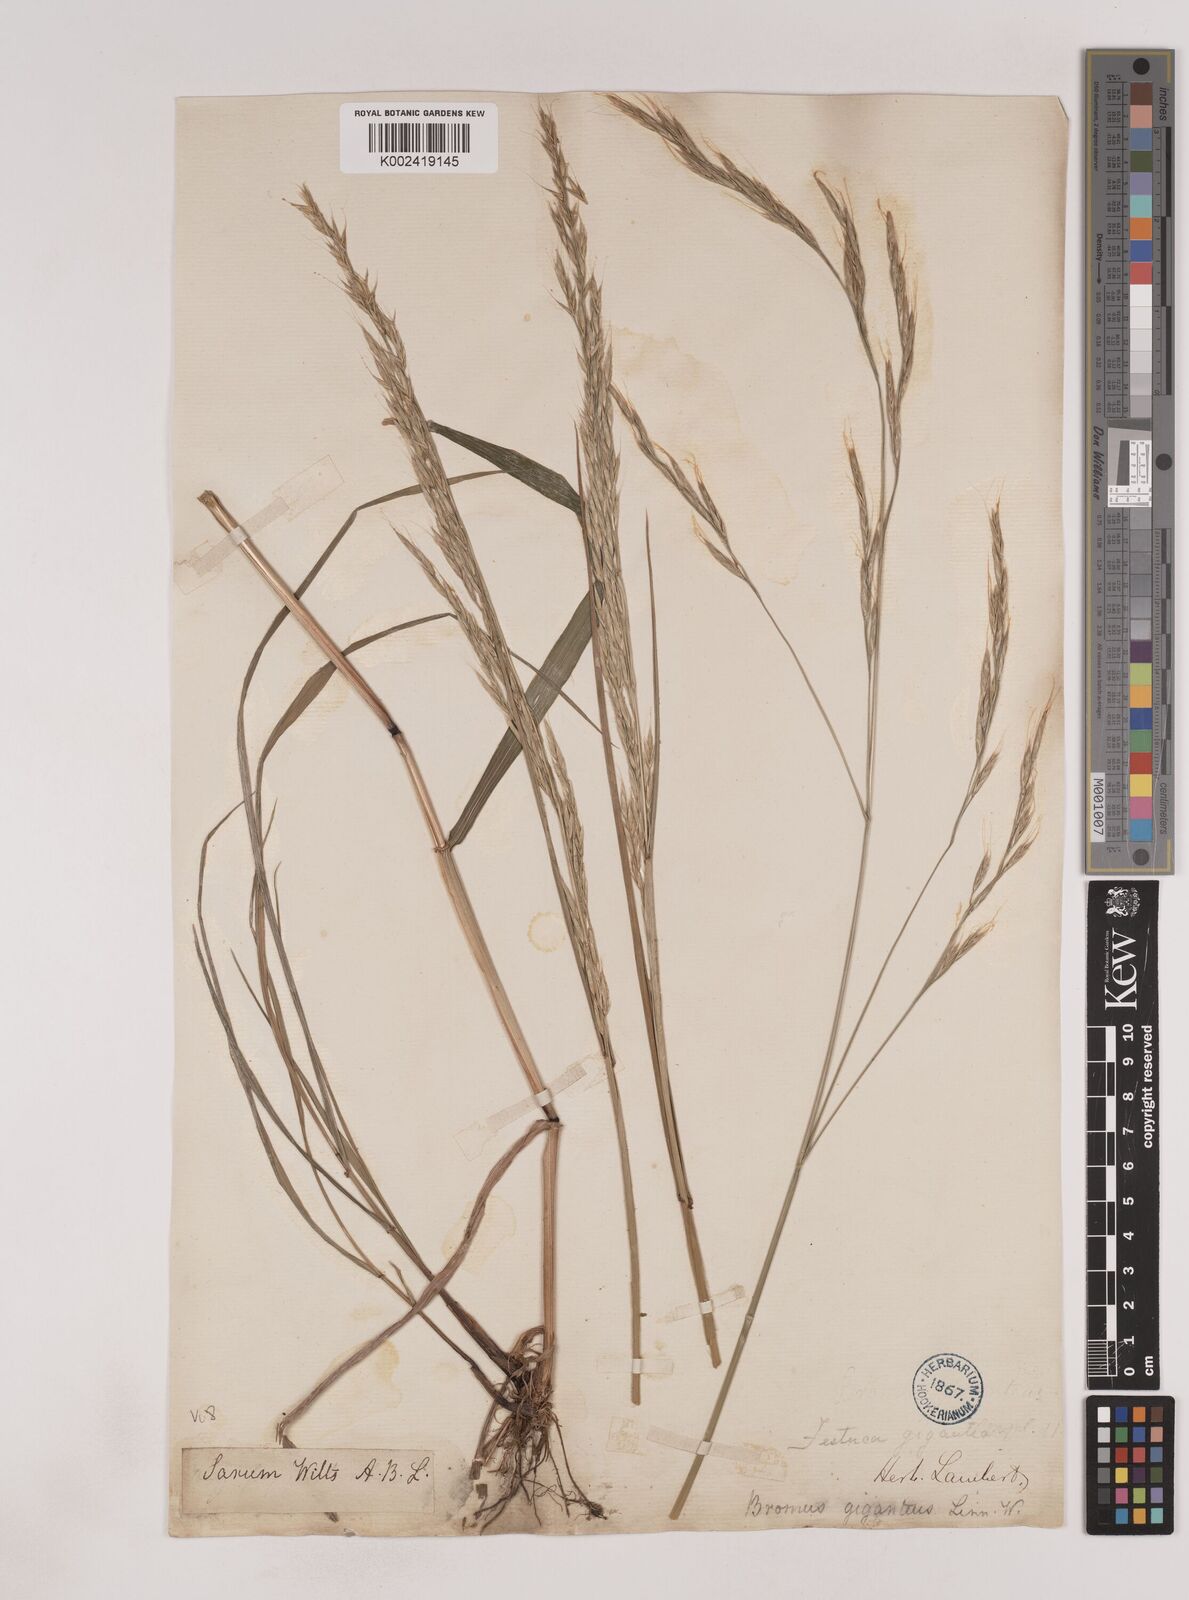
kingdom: Plantae
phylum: Tracheophyta
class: Liliopsida
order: Poales
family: Poaceae
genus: Lolium
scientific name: Lolium giganteum
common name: Giant fescue
